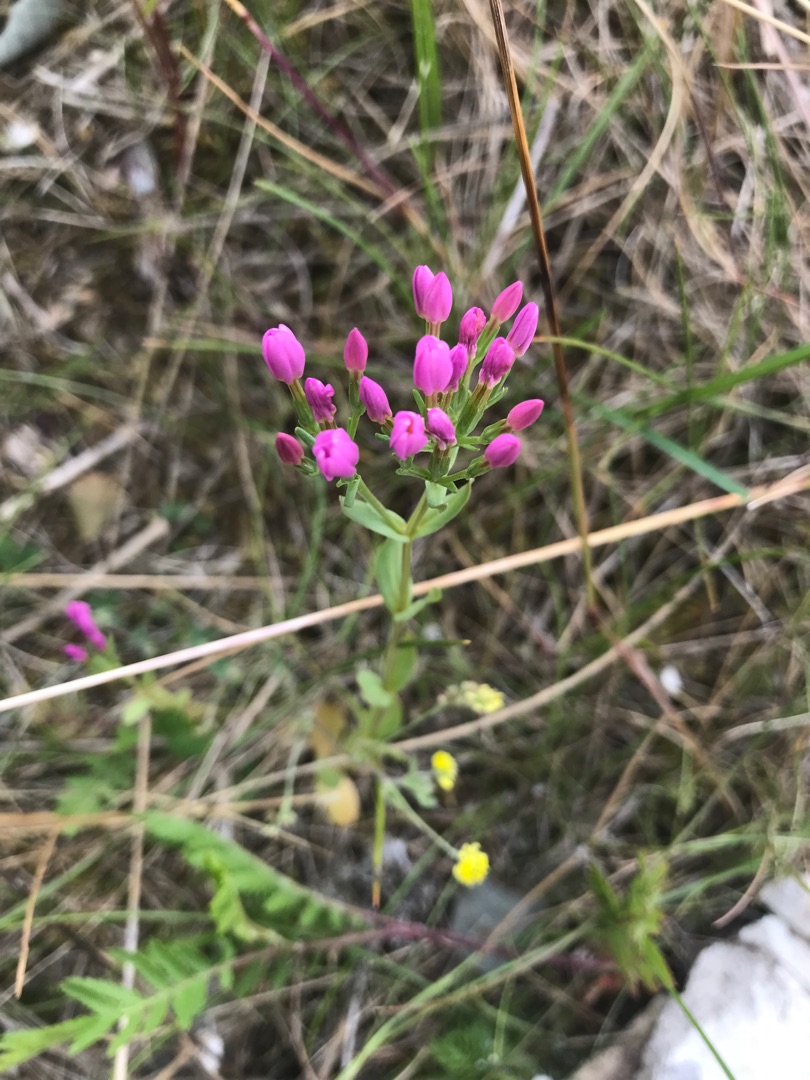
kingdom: Plantae
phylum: Tracheophyta
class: Magnoliopsida
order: Gentianales
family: Gentianaceae
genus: Centaurium
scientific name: Centaurium erythraea
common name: Mark-tusindgylden
